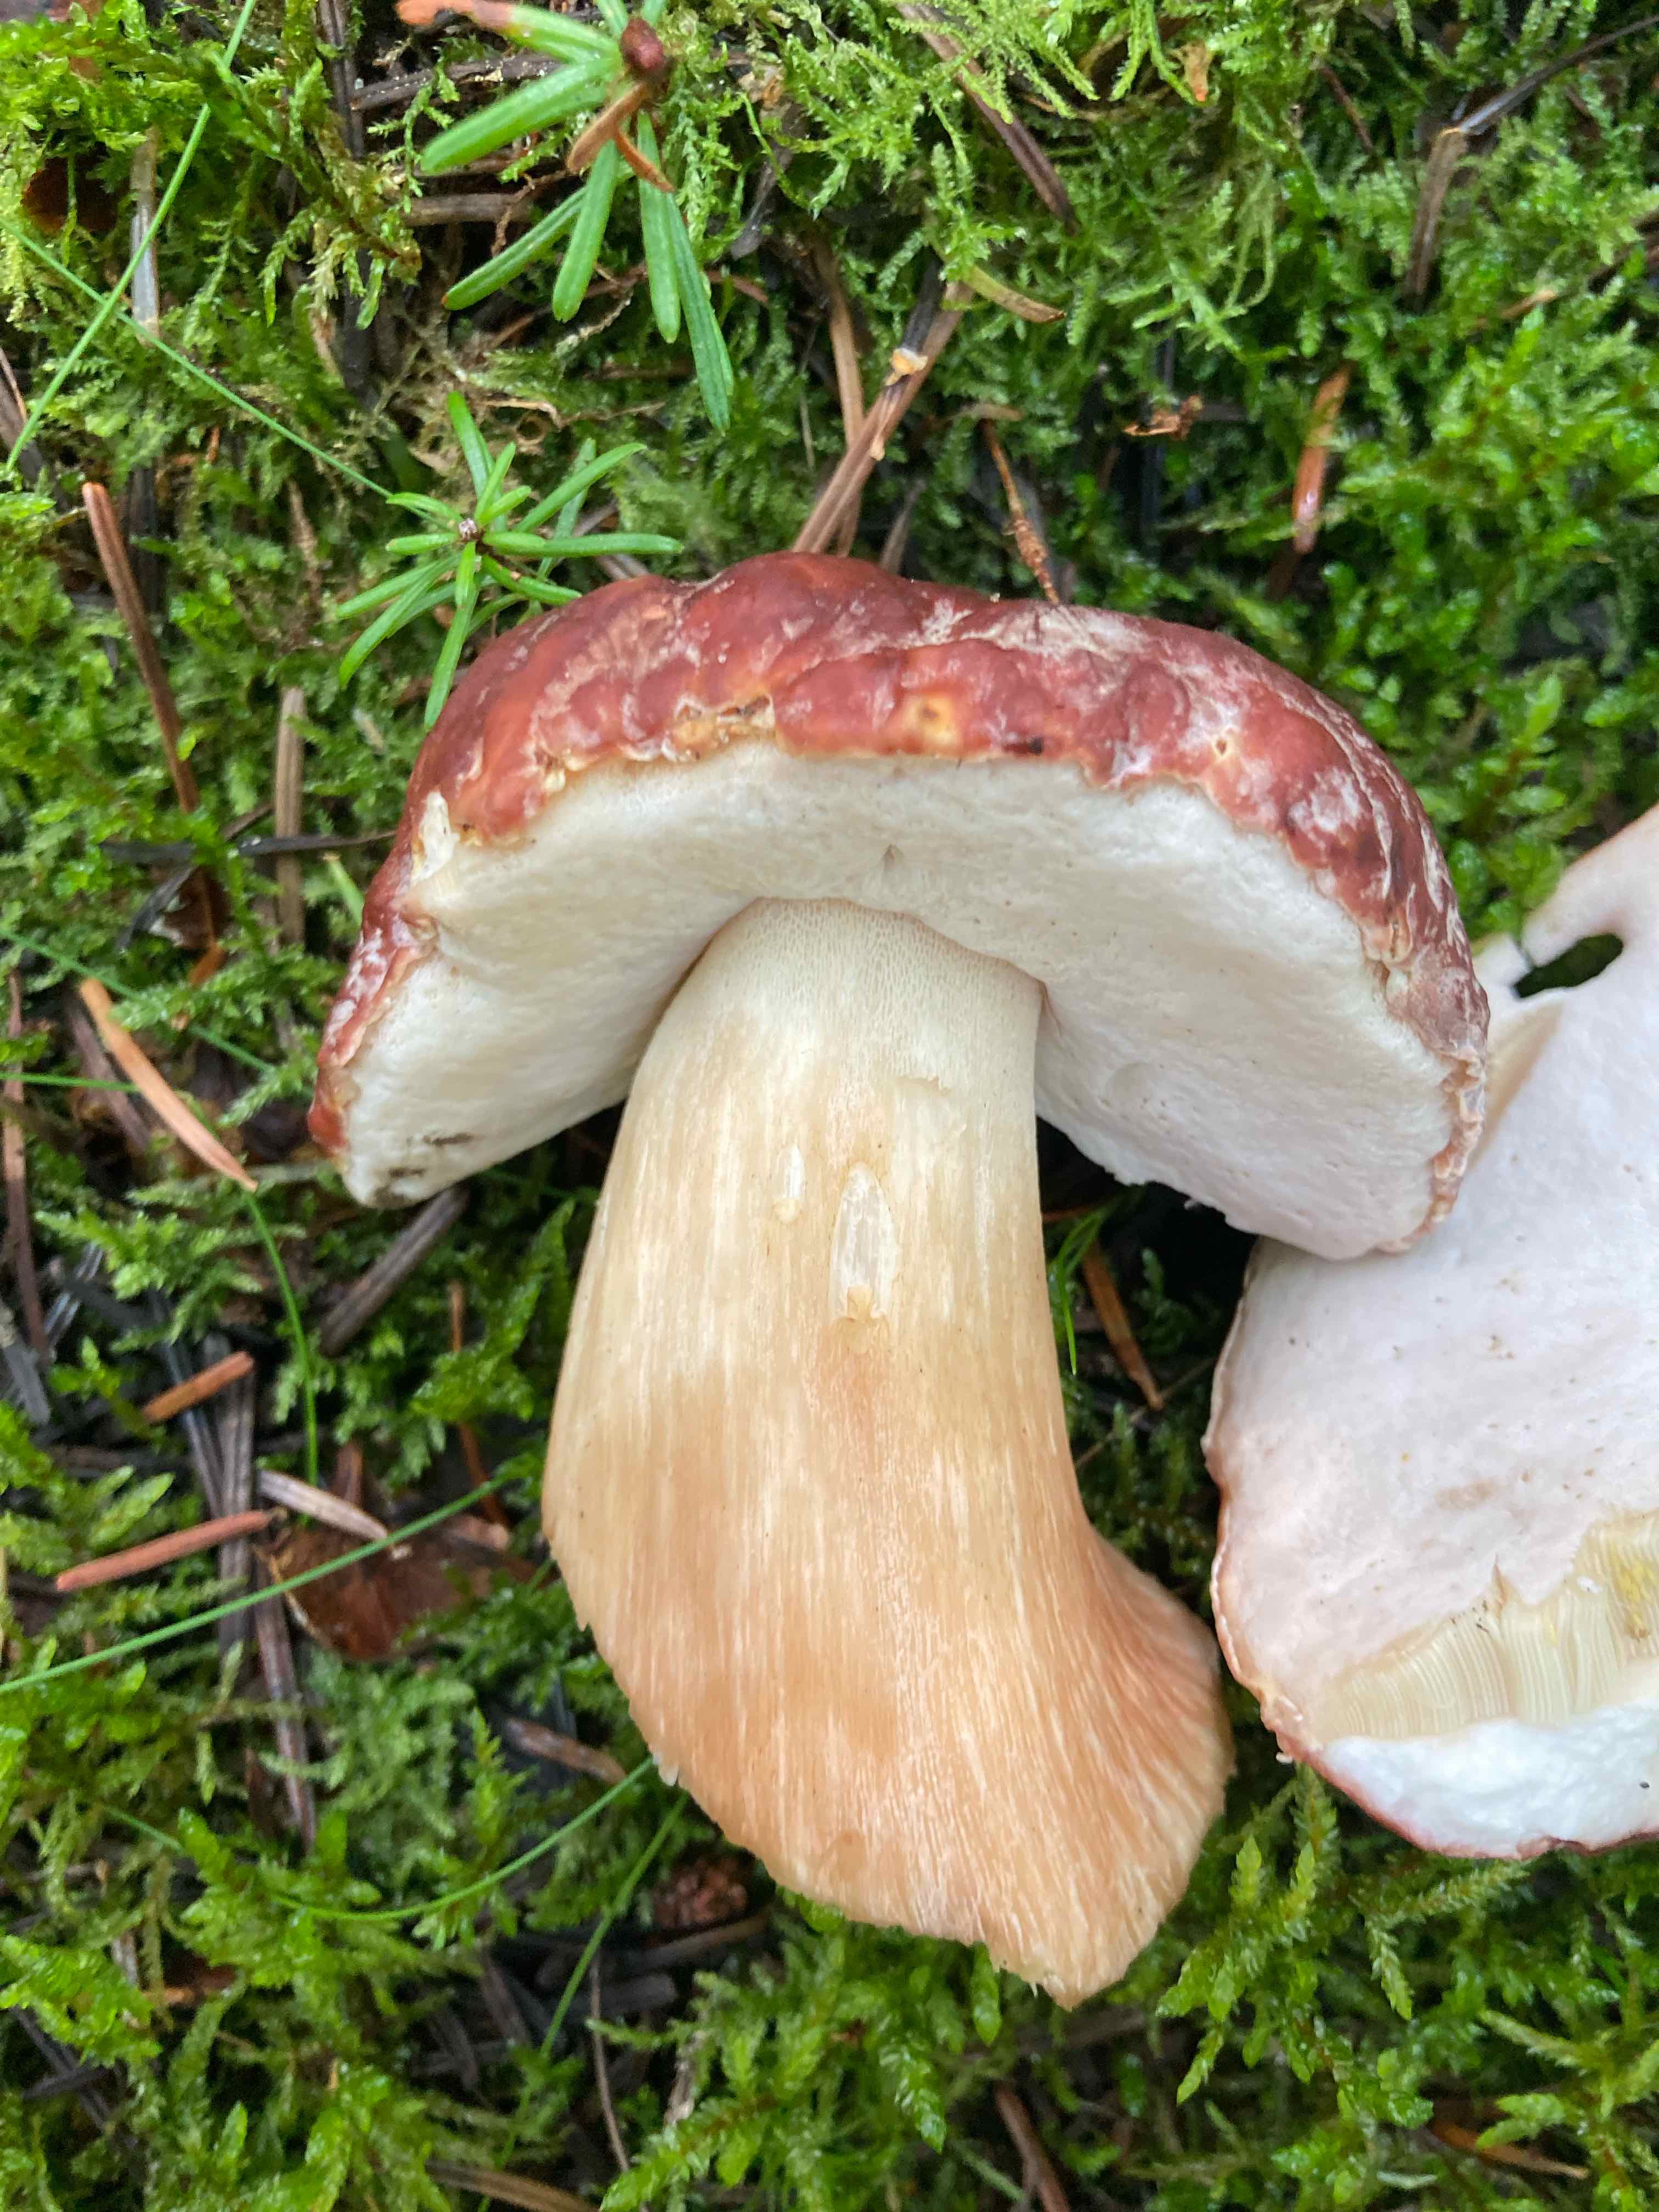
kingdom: Fungi
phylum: Basidiomycota
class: Agaricomycetes
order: Boletales
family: Boletaceae
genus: Boletus
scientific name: Boletus pinophilus
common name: rødbrun rørhat
